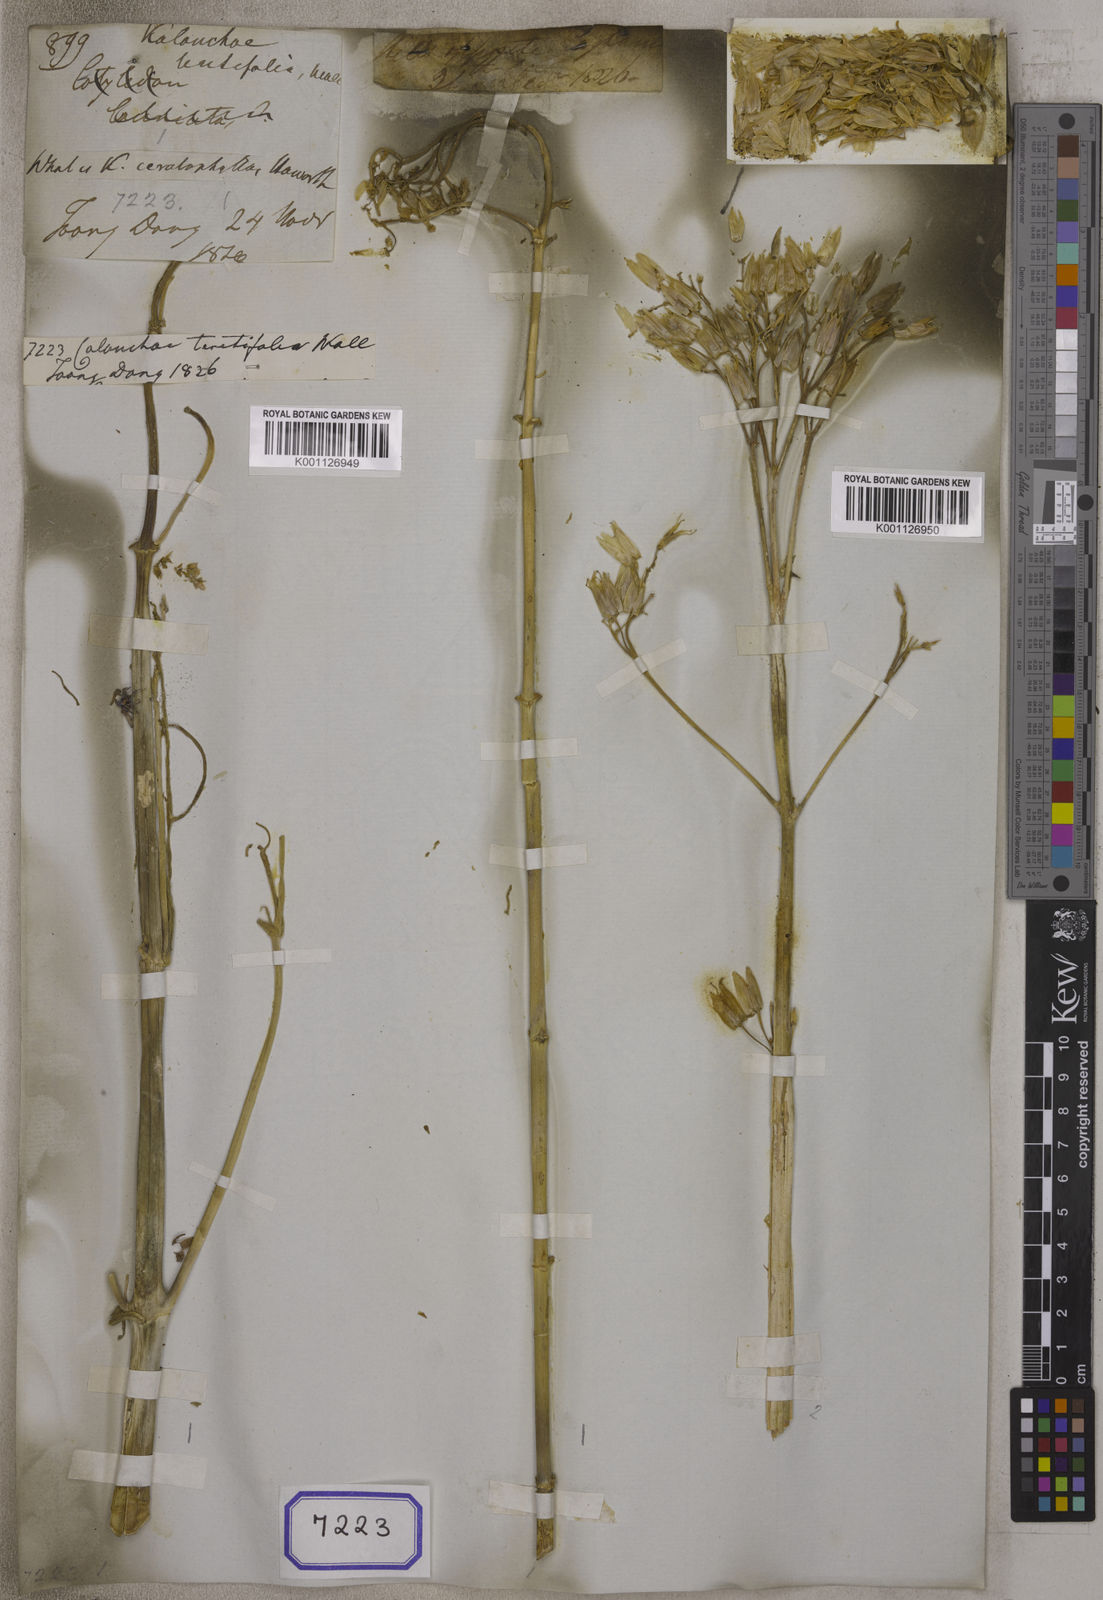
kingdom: Plantae
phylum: Tracheophyta
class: Magnoliopsida
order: Saxifragales
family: Crassulaceae
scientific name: Crassulaceae
